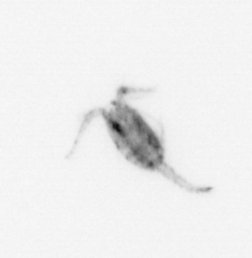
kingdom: Animalia
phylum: Arthropoda
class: Copepoda
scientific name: Copepoda
